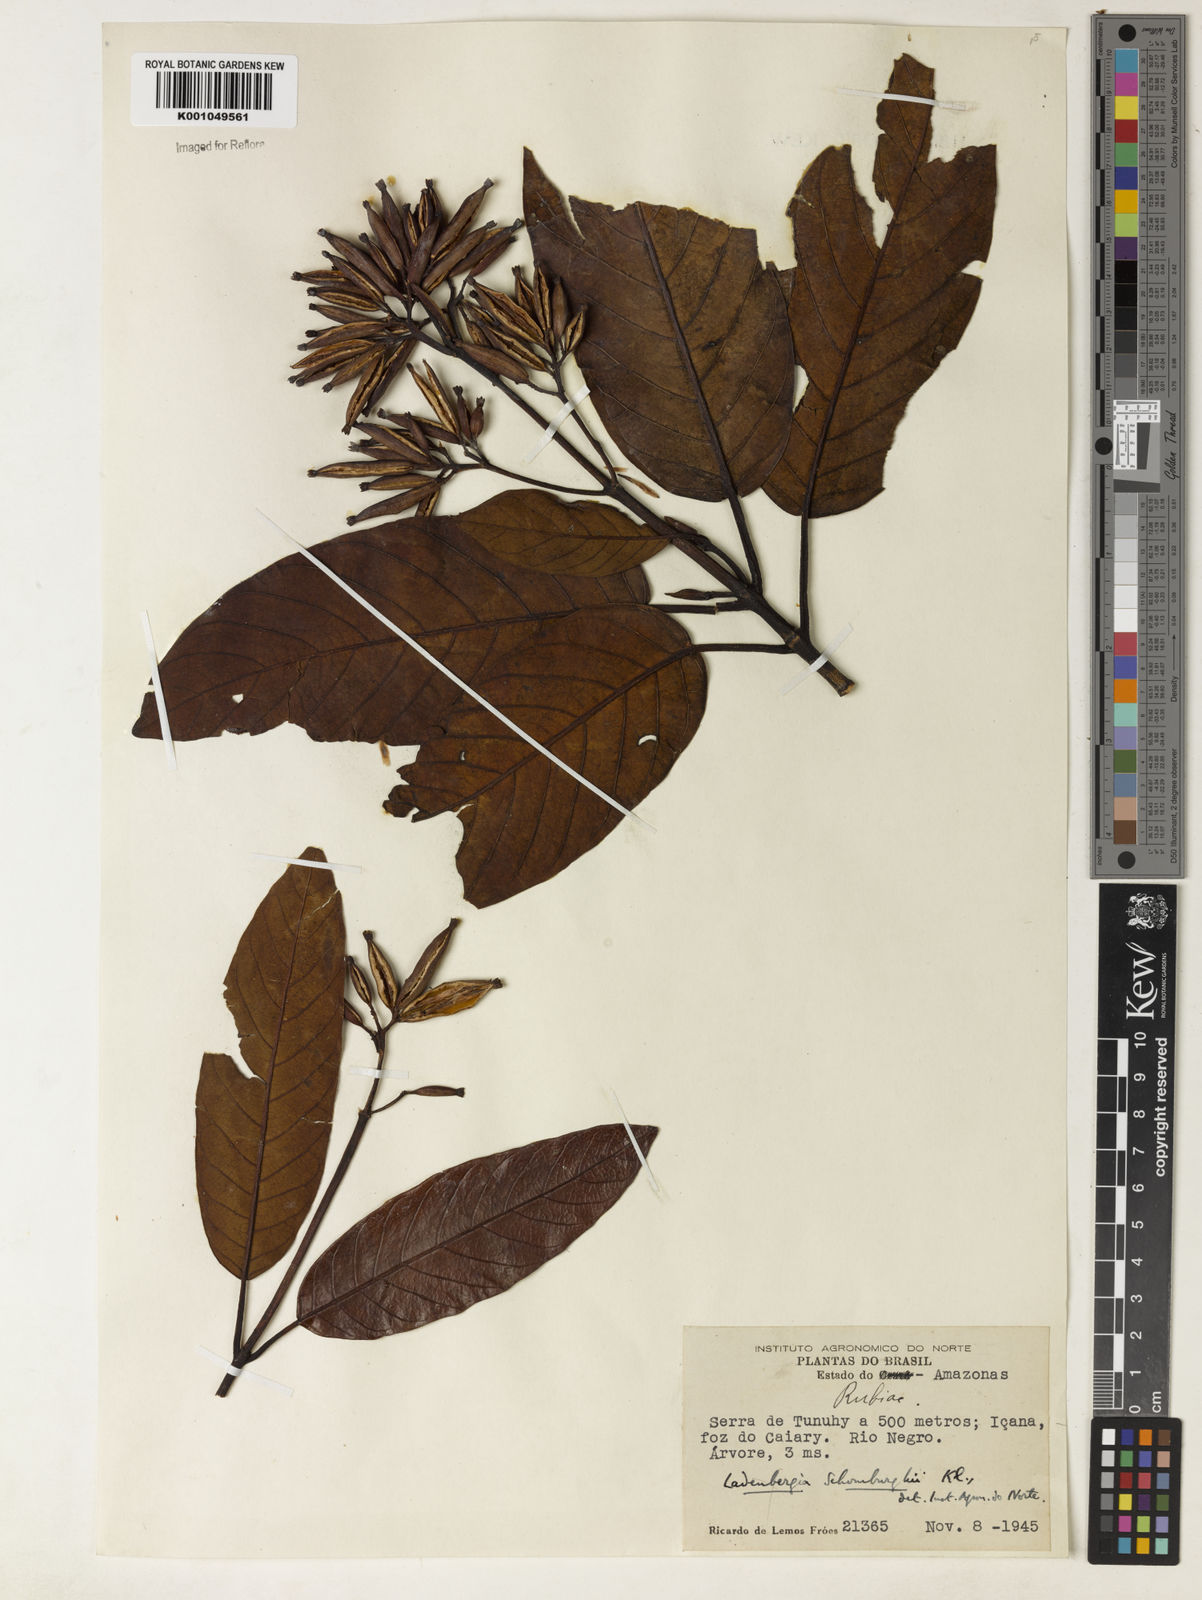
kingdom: Plantae
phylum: Tracheophyta
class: Magnoliopsida
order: Gentianales
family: Rubiaceae
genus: Ladenbergia
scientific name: Ladenbergia lambertiana
